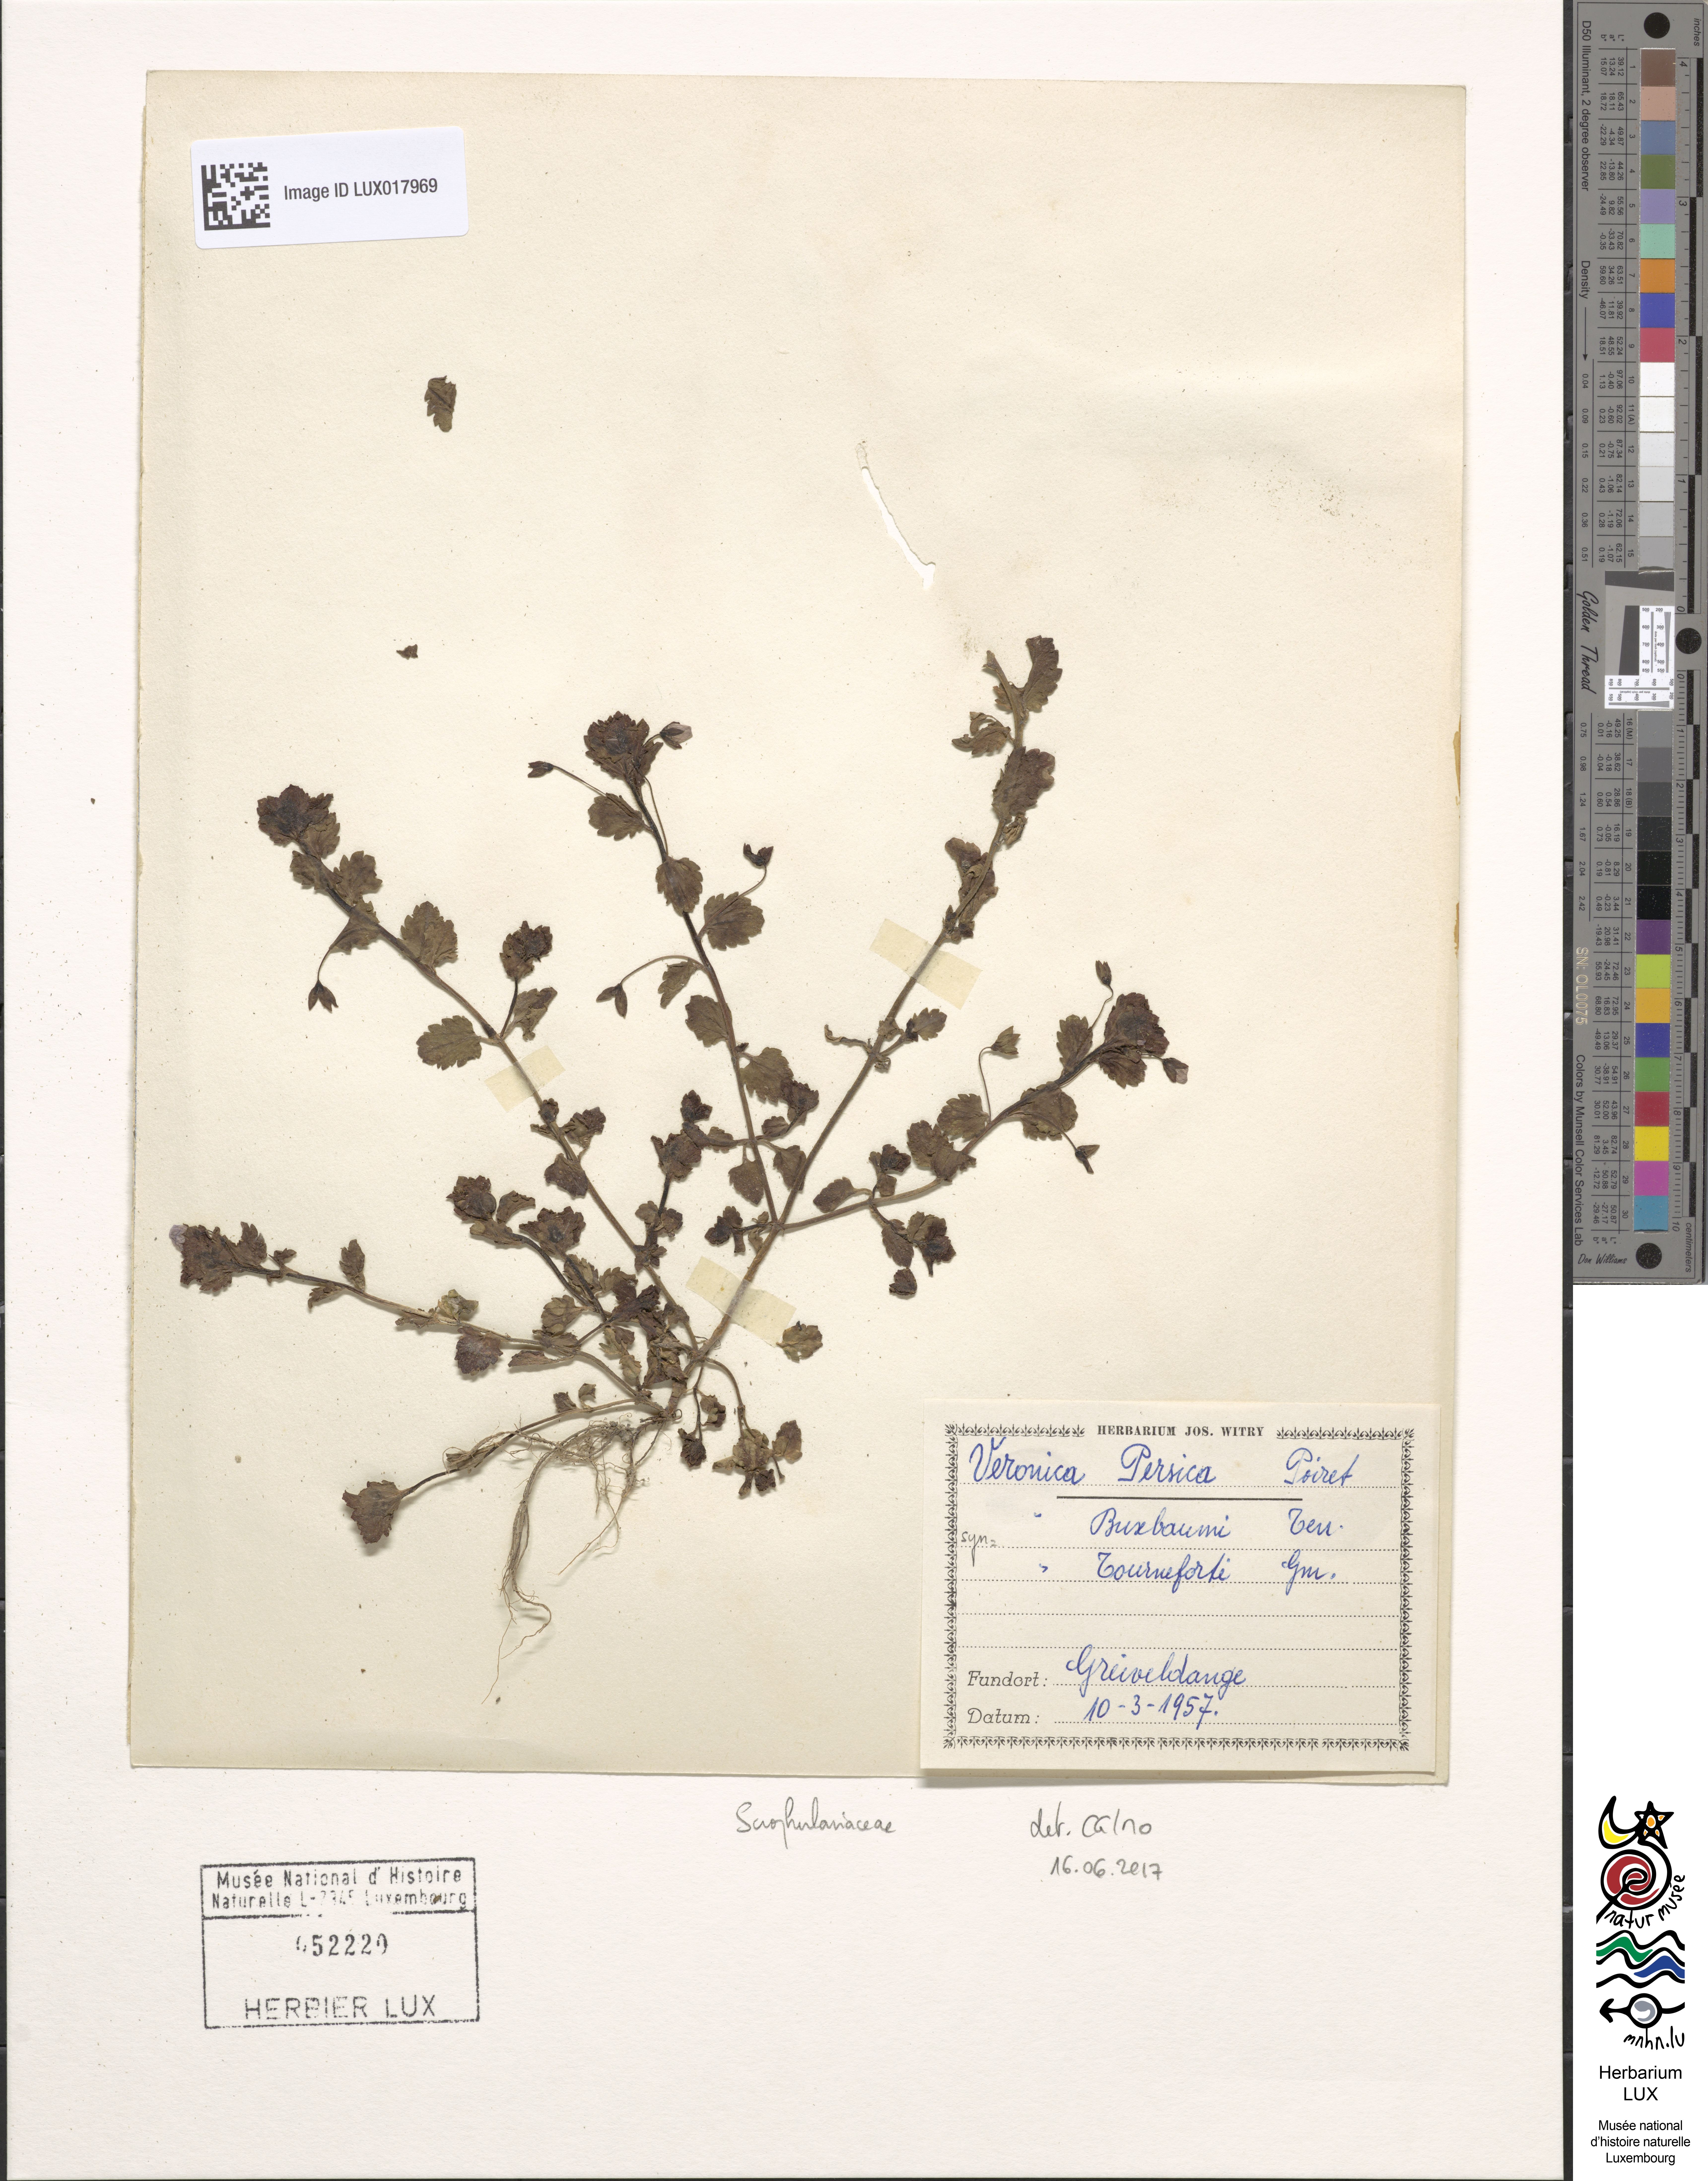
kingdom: Plantae
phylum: Tracheophyta
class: Magnoliopsida
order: Lamiales
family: Plantaginaceae
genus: Veronica
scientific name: Veronica persica
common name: Common field-speedwell
